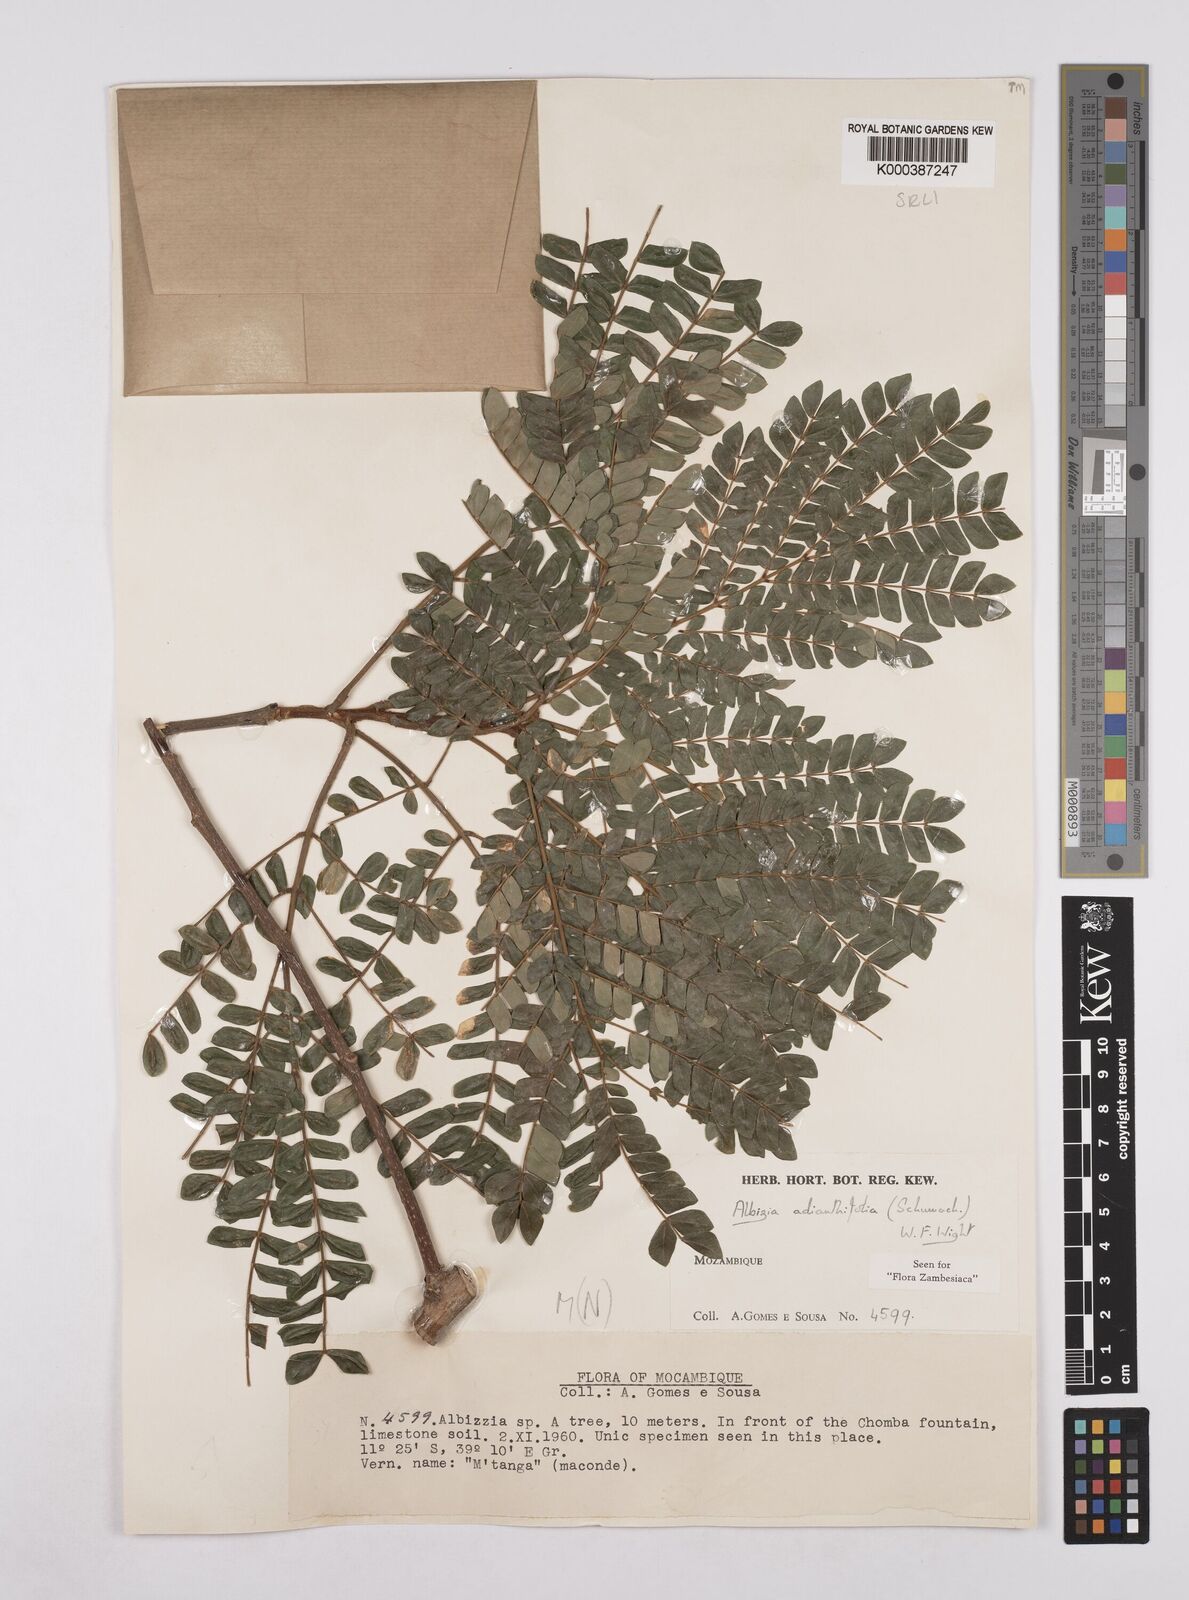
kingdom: Plantae
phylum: Tracheophyta
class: Magnoliopsida
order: Fabales
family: Fabaceae
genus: Albizia
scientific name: Albizia adianthifolia
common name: West african albizia
